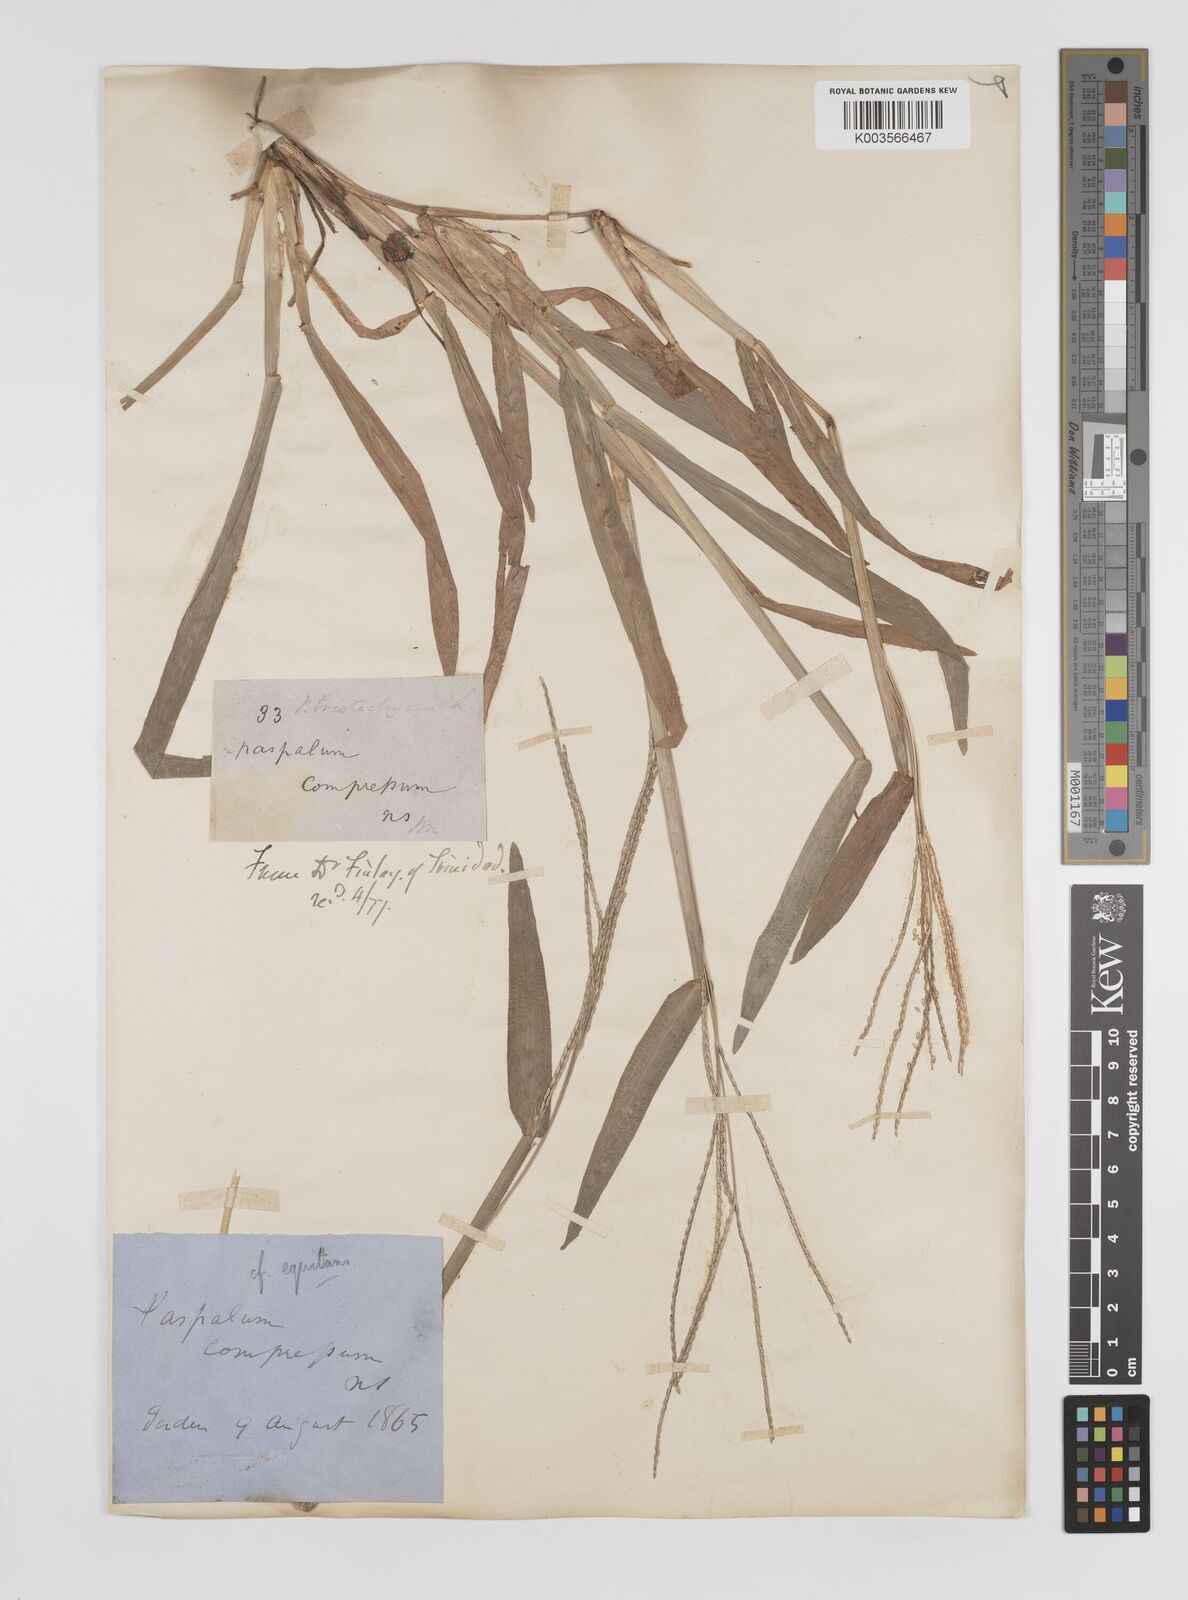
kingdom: Plantae
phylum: Tracheophyta
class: Liliopsida
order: Poales
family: Poaceae
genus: Axonopus
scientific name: Axonopus compressus
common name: American carpet grass
